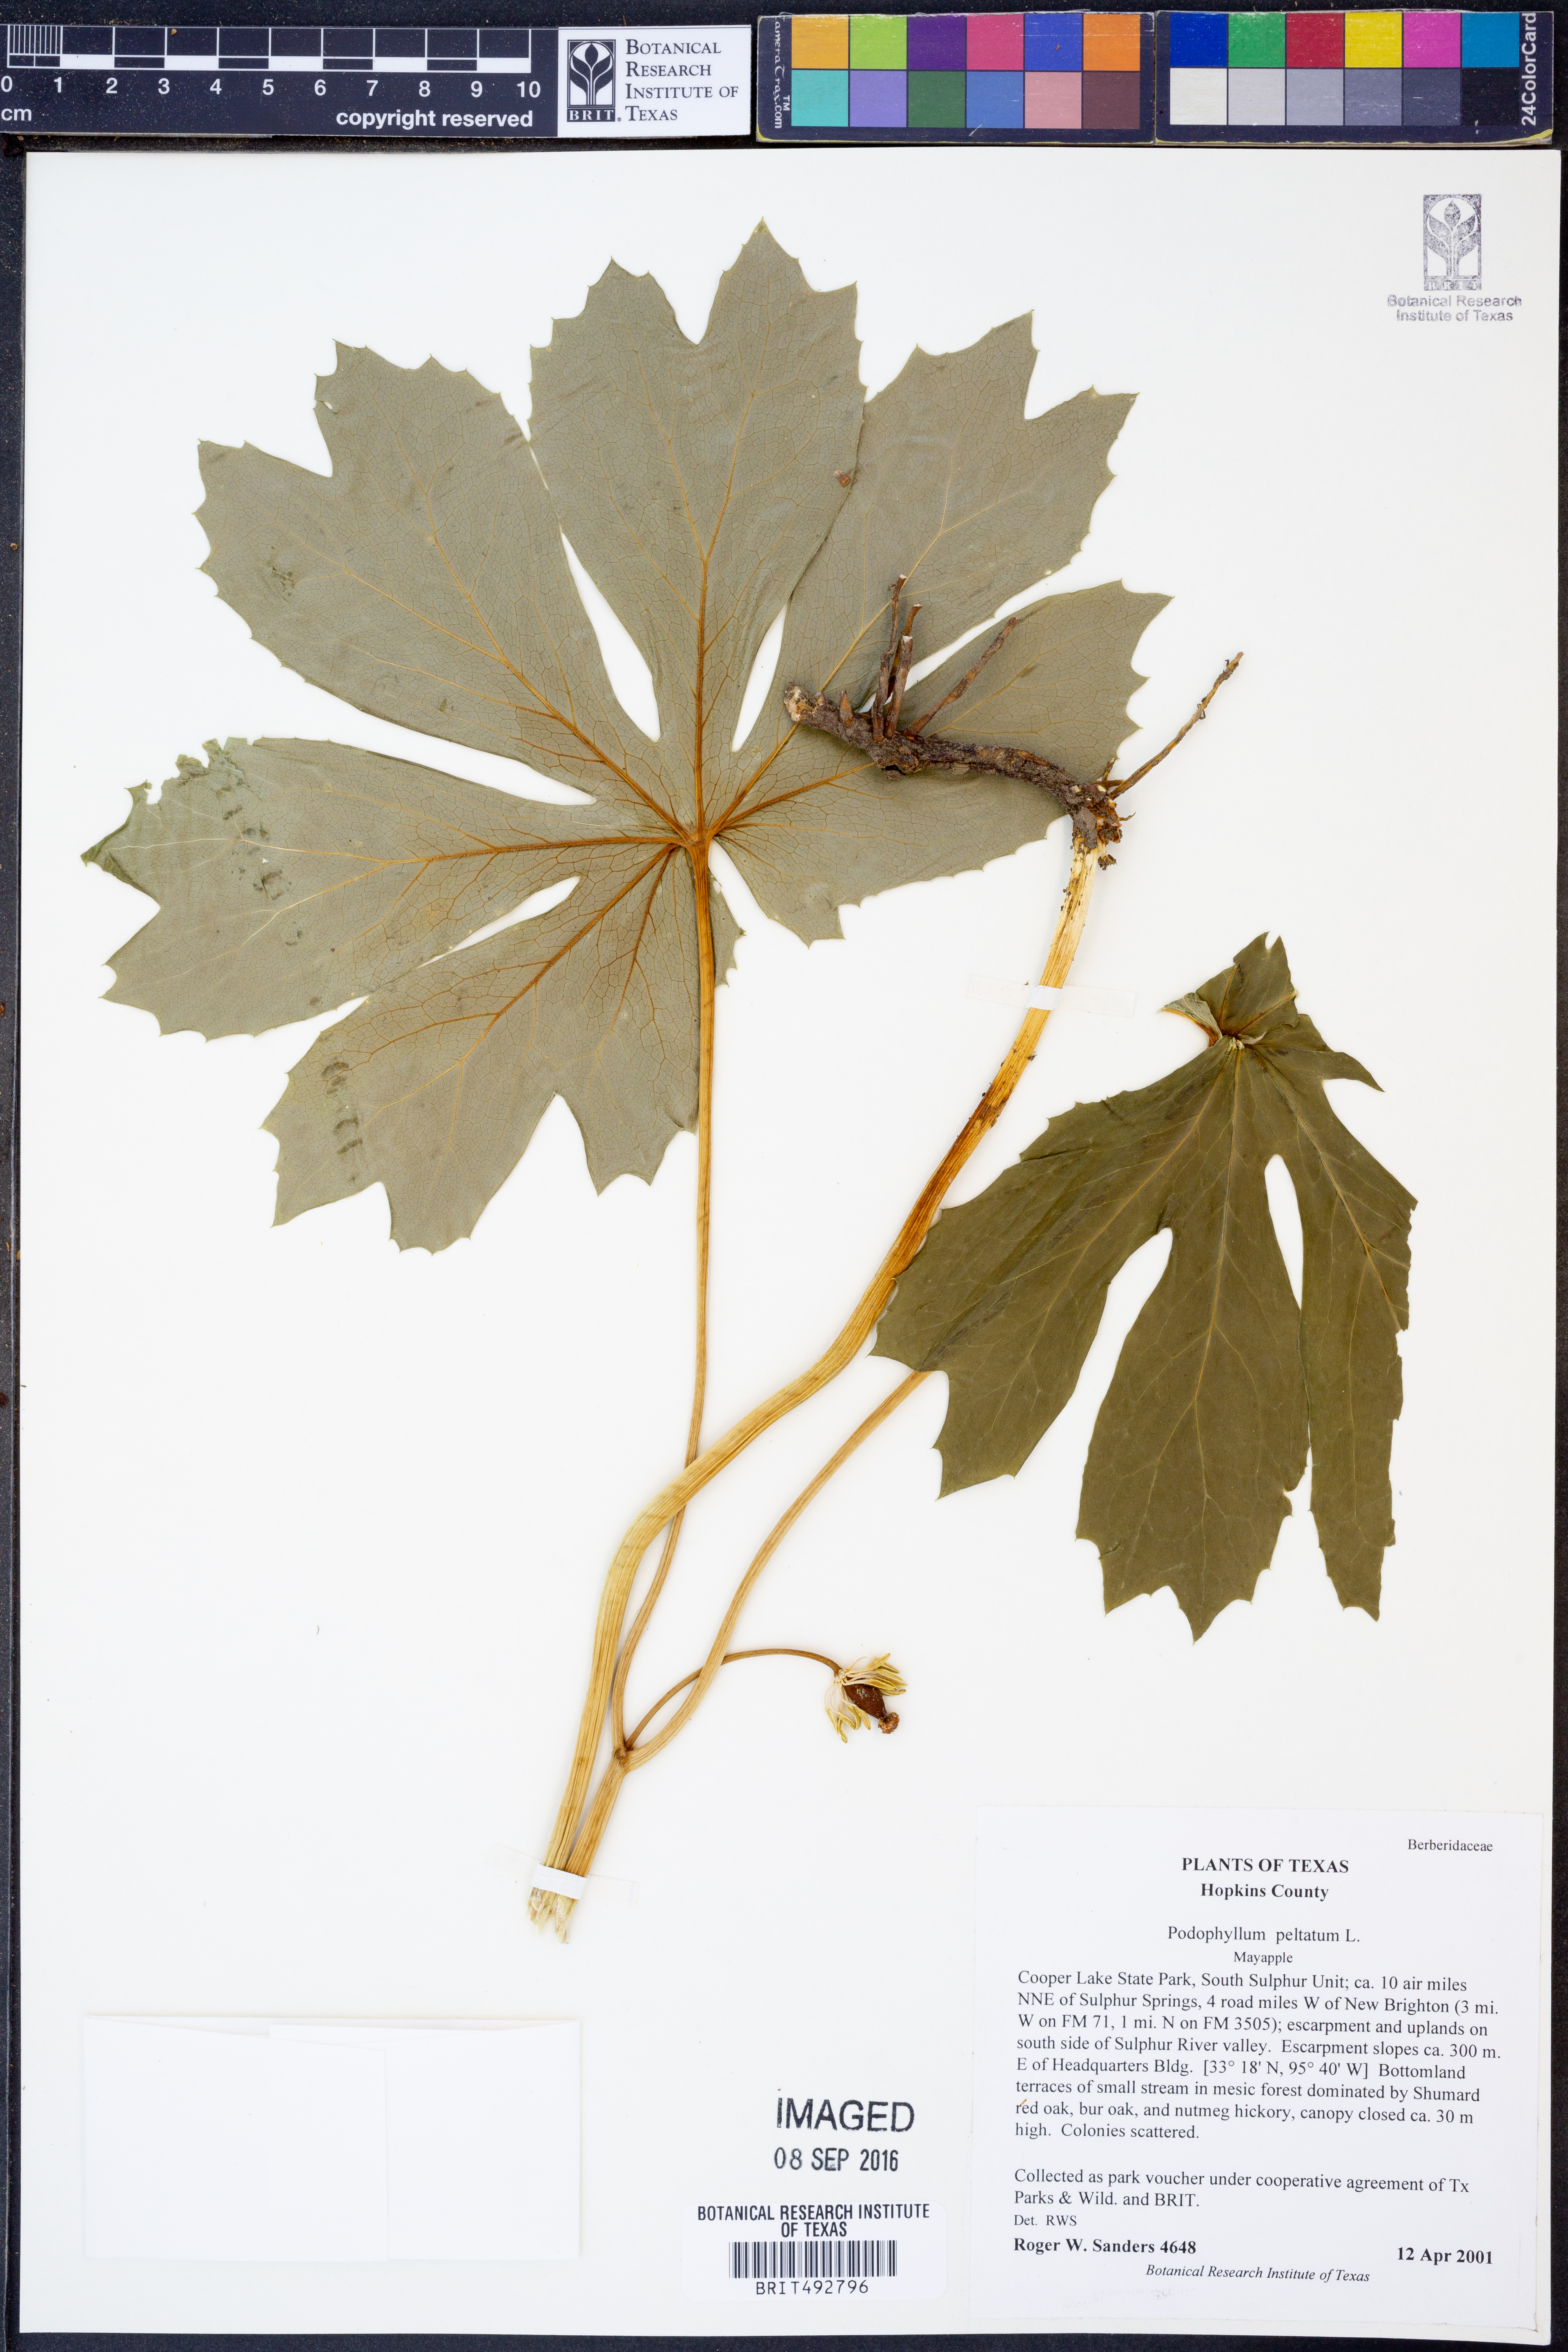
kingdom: Plantae
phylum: Tracheophyta
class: Magnoliopsida
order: Ranunculales
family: Berberidaceae
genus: Podophyllum
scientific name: Podophyllum peltatum
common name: Wild mandrake
